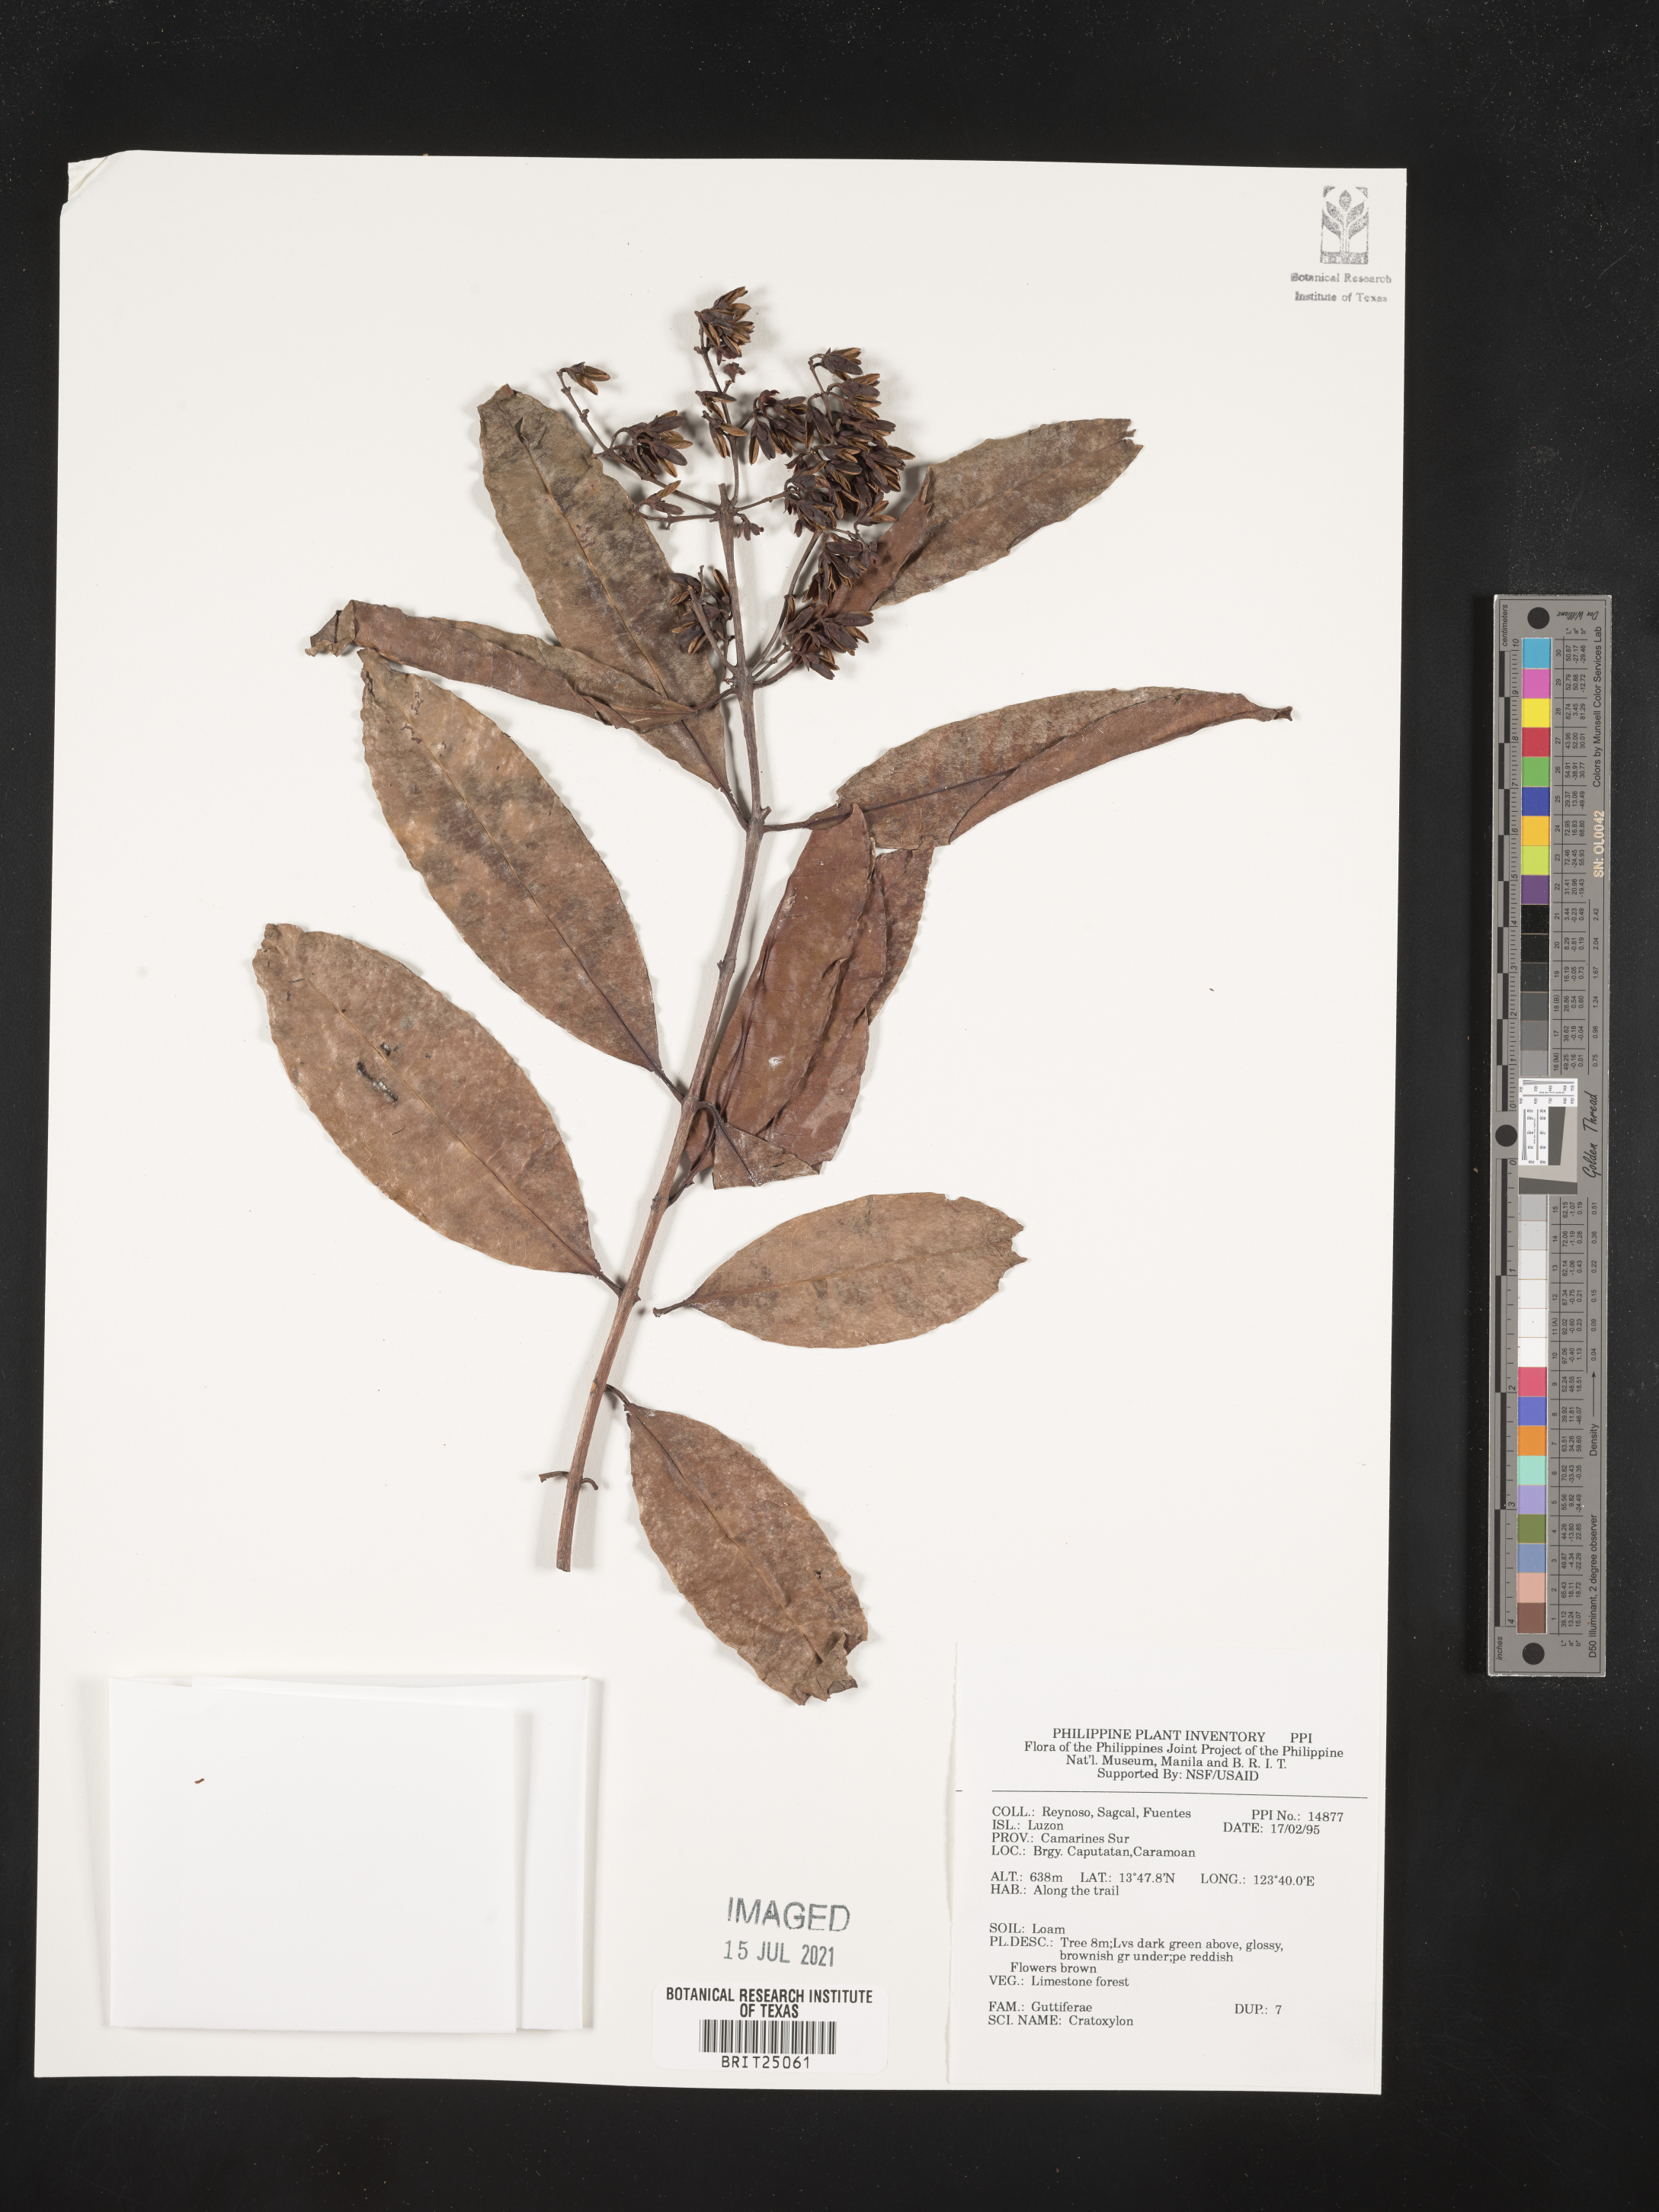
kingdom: Plantae
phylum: Tracheophyta
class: Magnoliopsida
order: Malpighiales
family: Hypericaceae
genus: Cratoxylum
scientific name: Cratoxylum
